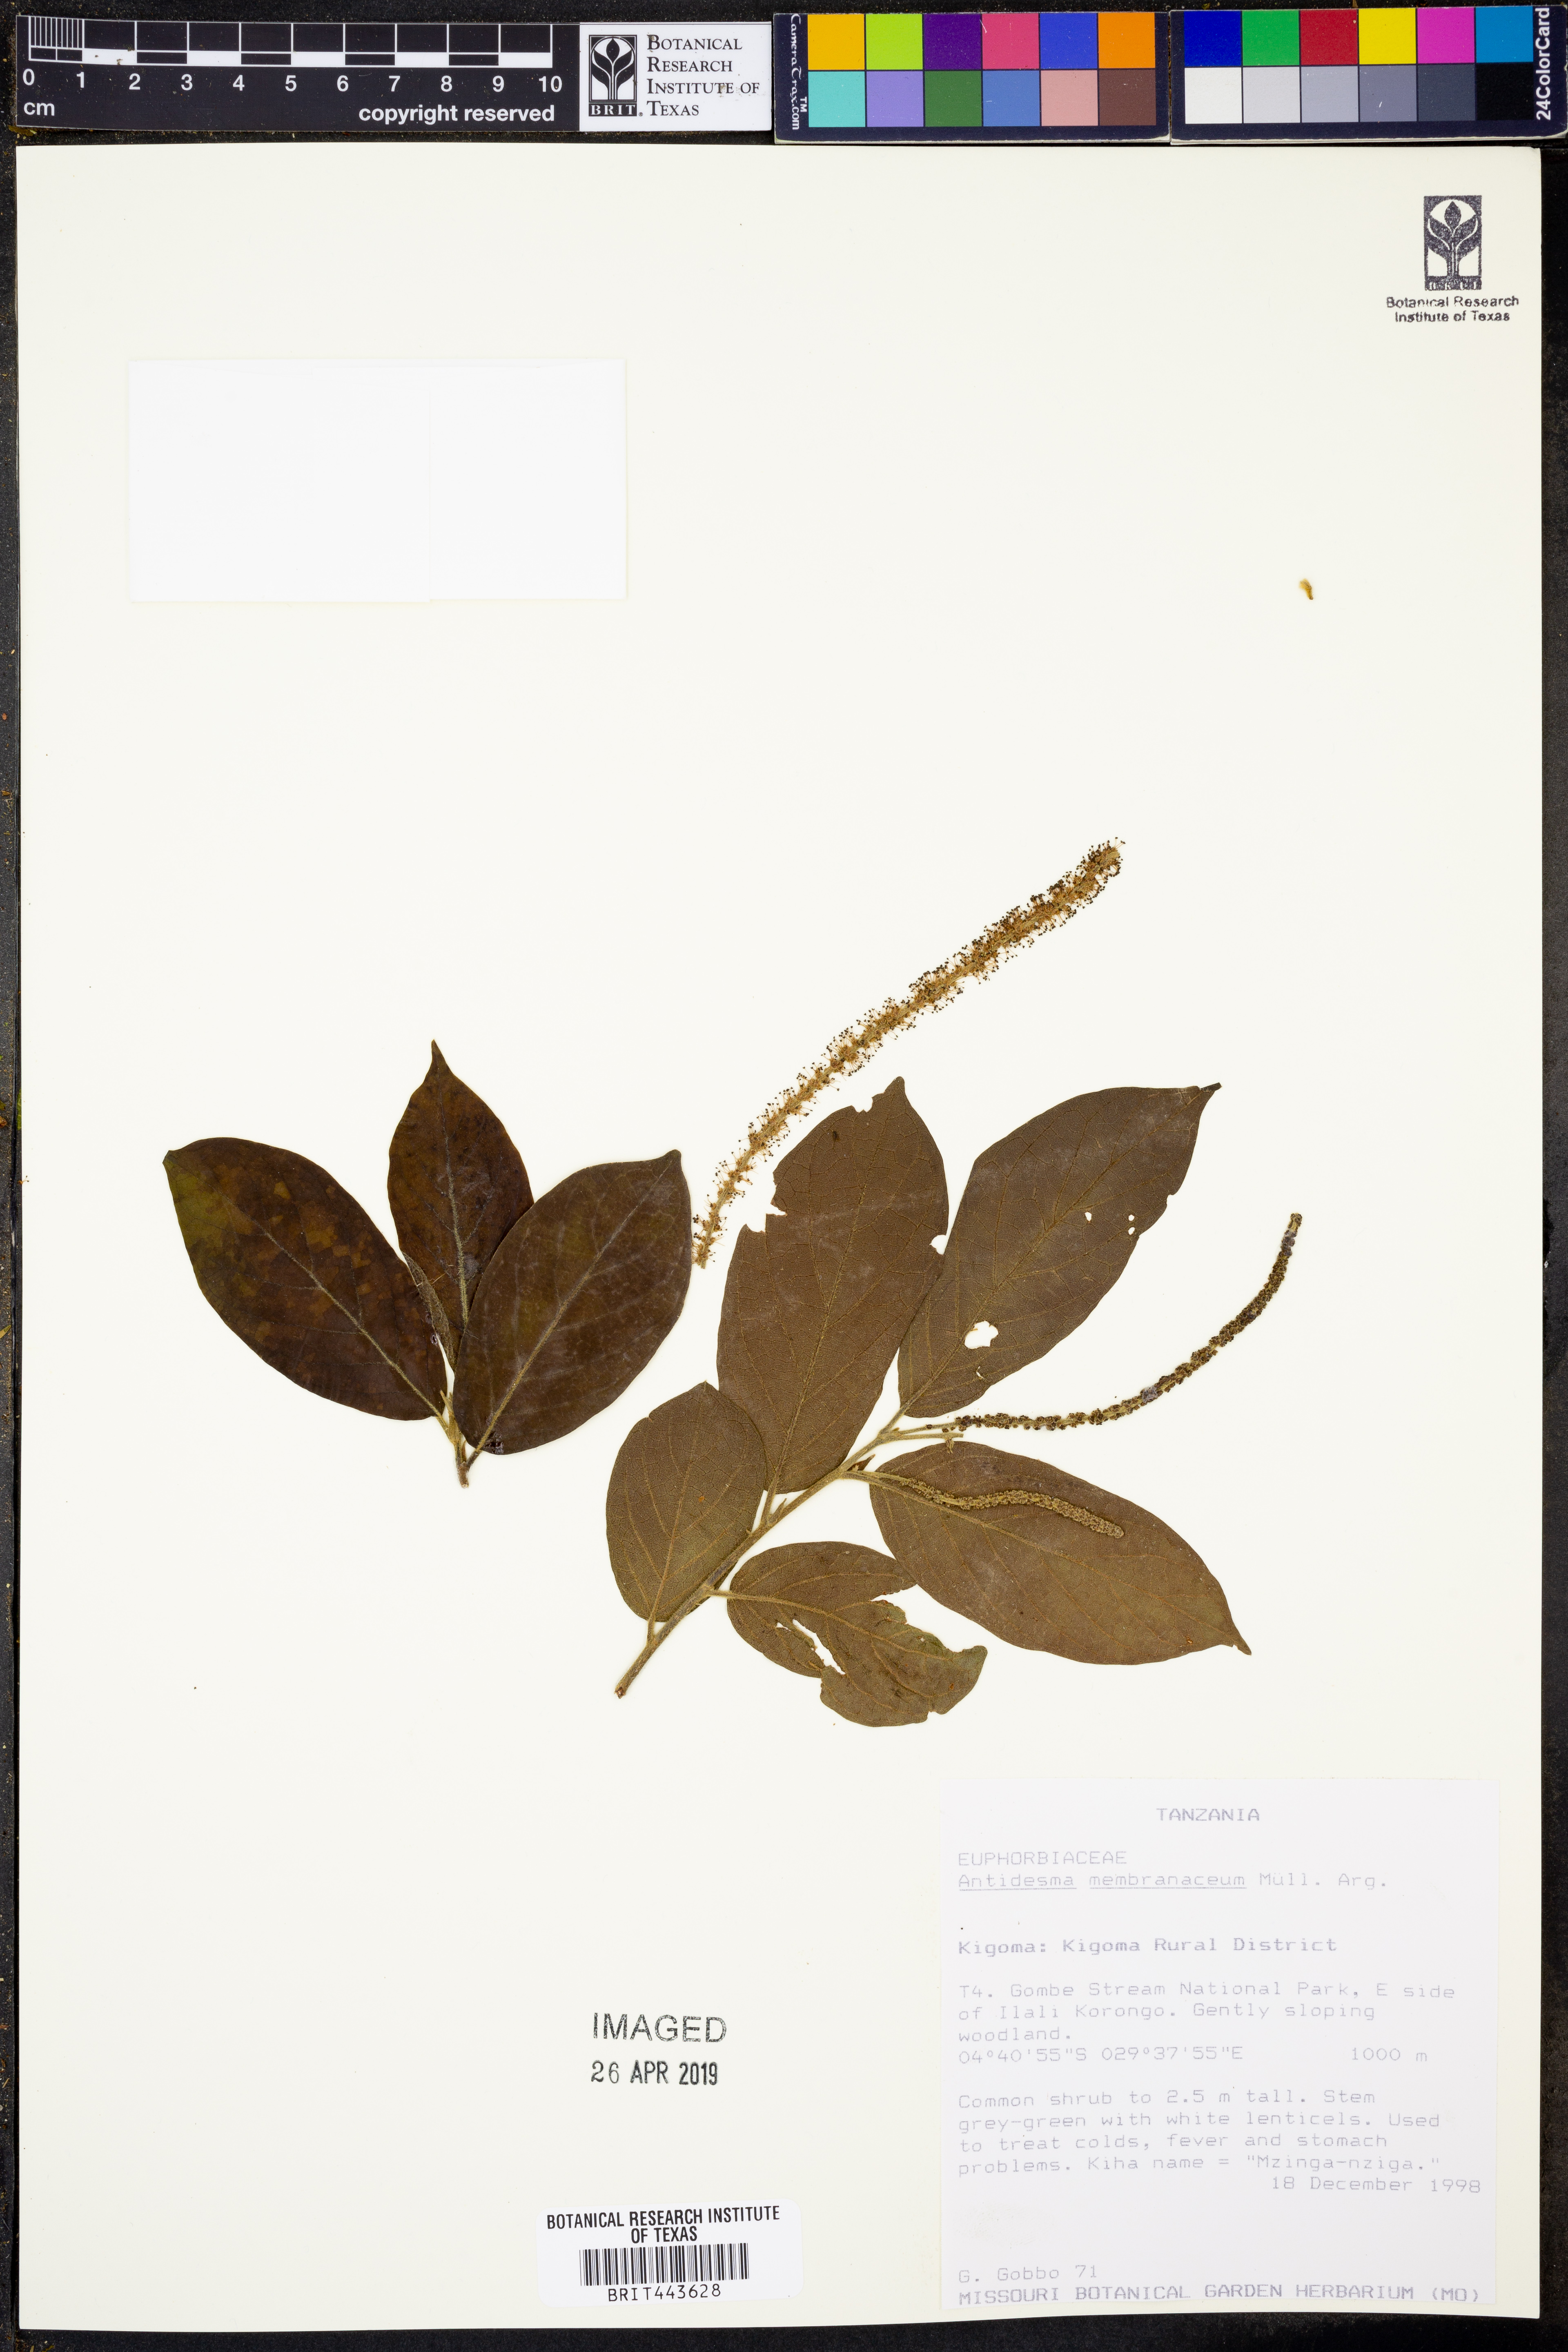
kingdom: Plantae
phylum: Tracheophyta
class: Magnoliopsida
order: Malpighiales
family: Phyllanthaceae
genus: Antidesma
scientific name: Antidesma membranaceum
